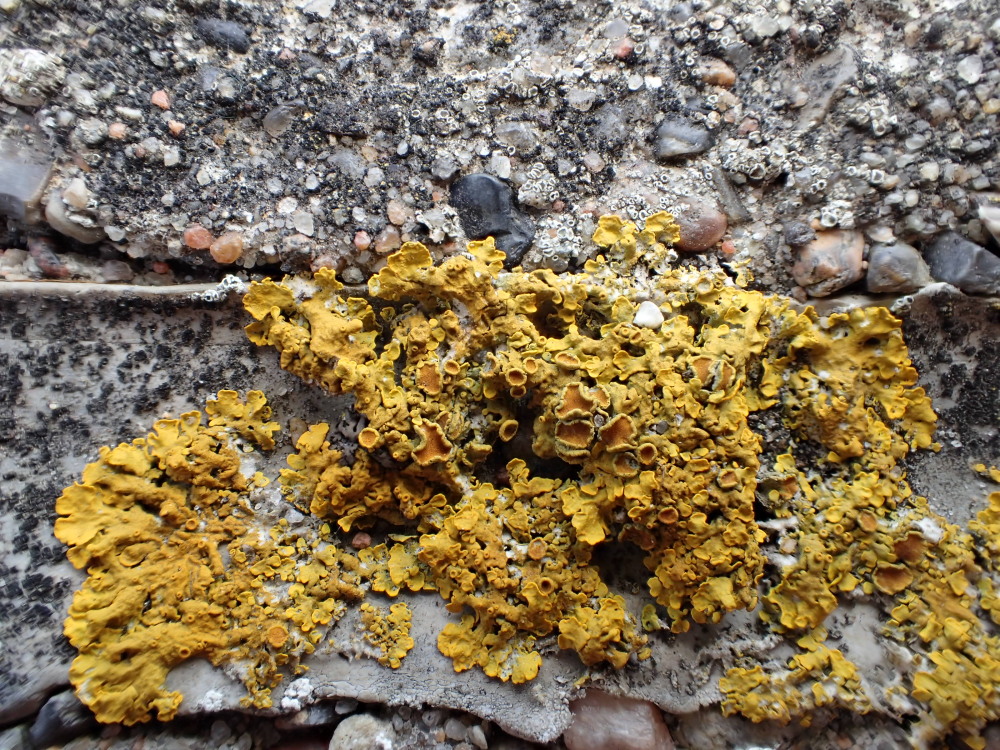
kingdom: Fungi
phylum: Ascomycota
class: Lecanoromycetes
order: Teloschistales
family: Teloschistaceae
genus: Xanthoria
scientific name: Xanthoria parietina
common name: almindelig væggelav
